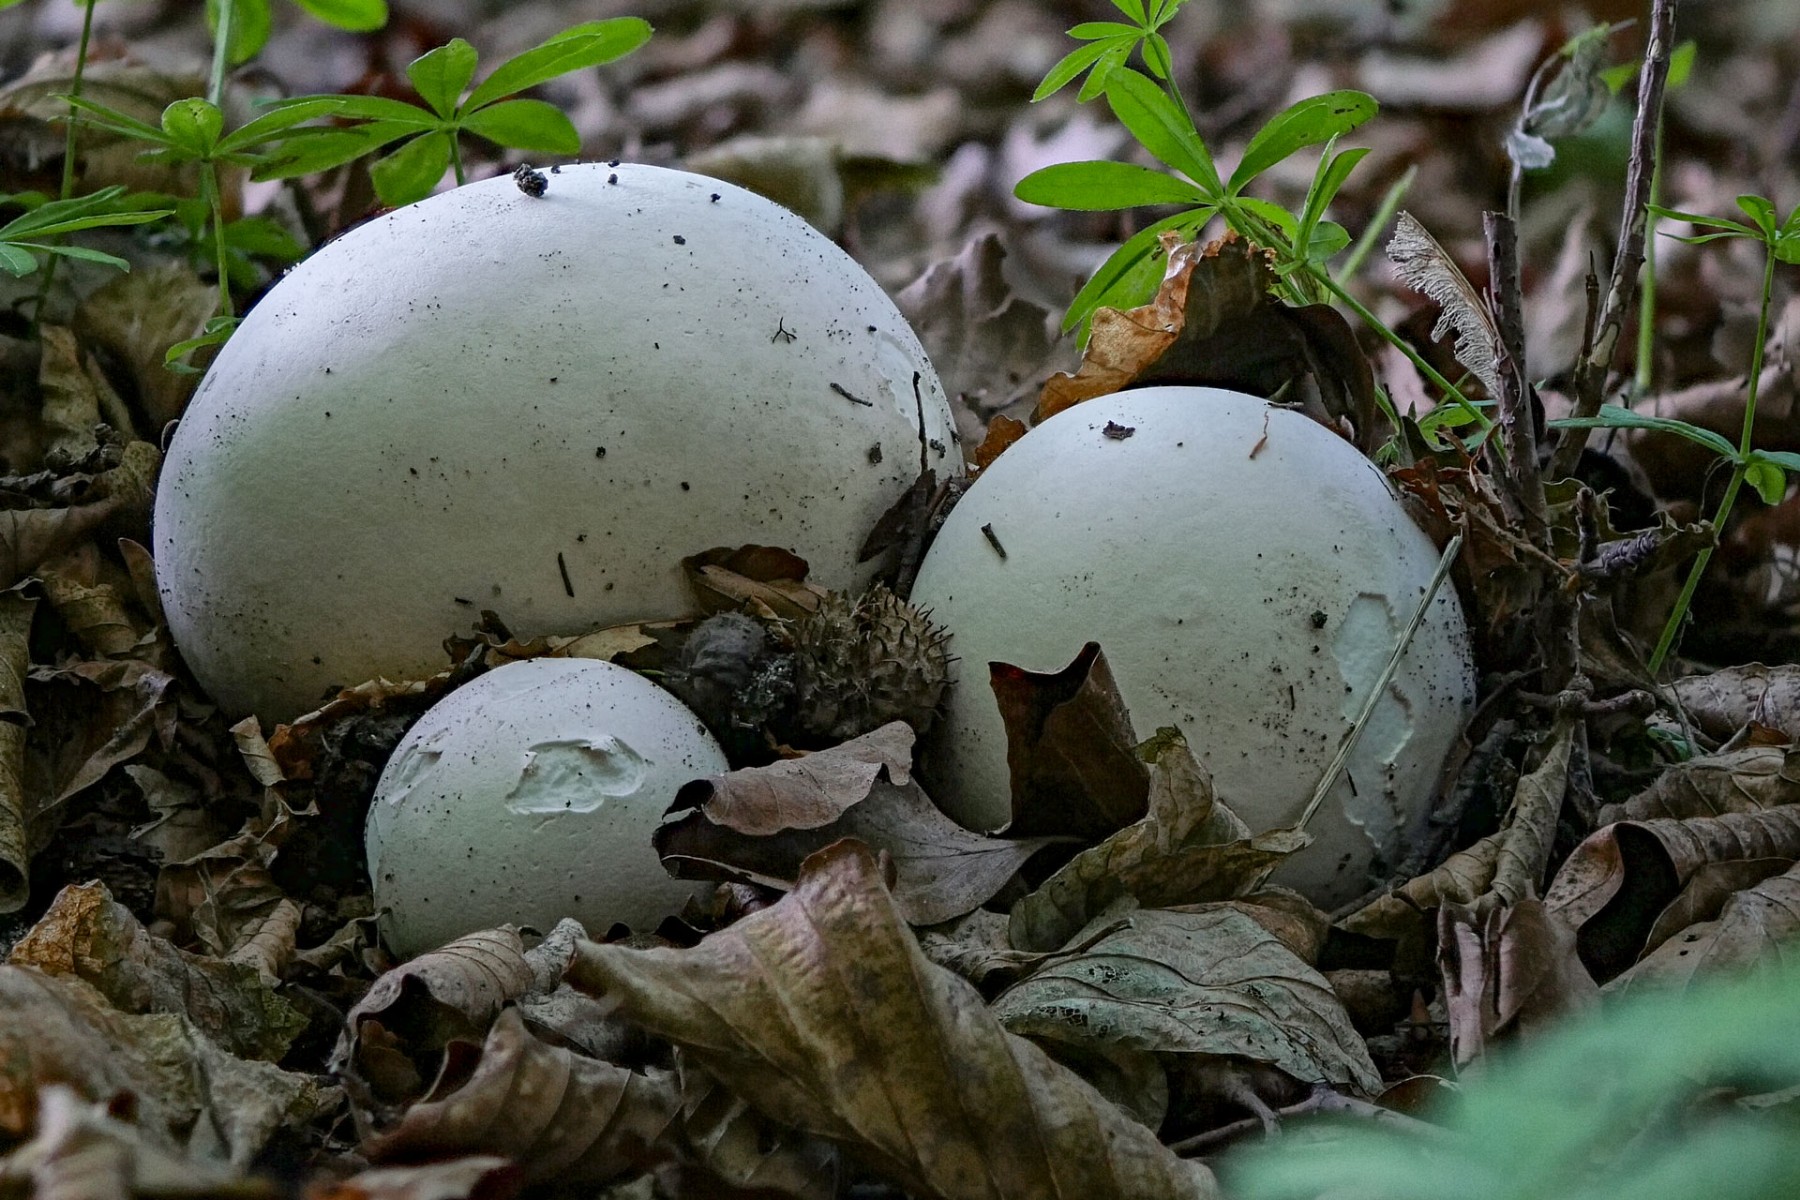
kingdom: Fungi
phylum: Basidiomycota
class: Agaricomycetes
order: Agaricales
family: Lycoperdaceae
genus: Calvatia
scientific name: Calvatia gigantea
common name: kæmpestøvbold
